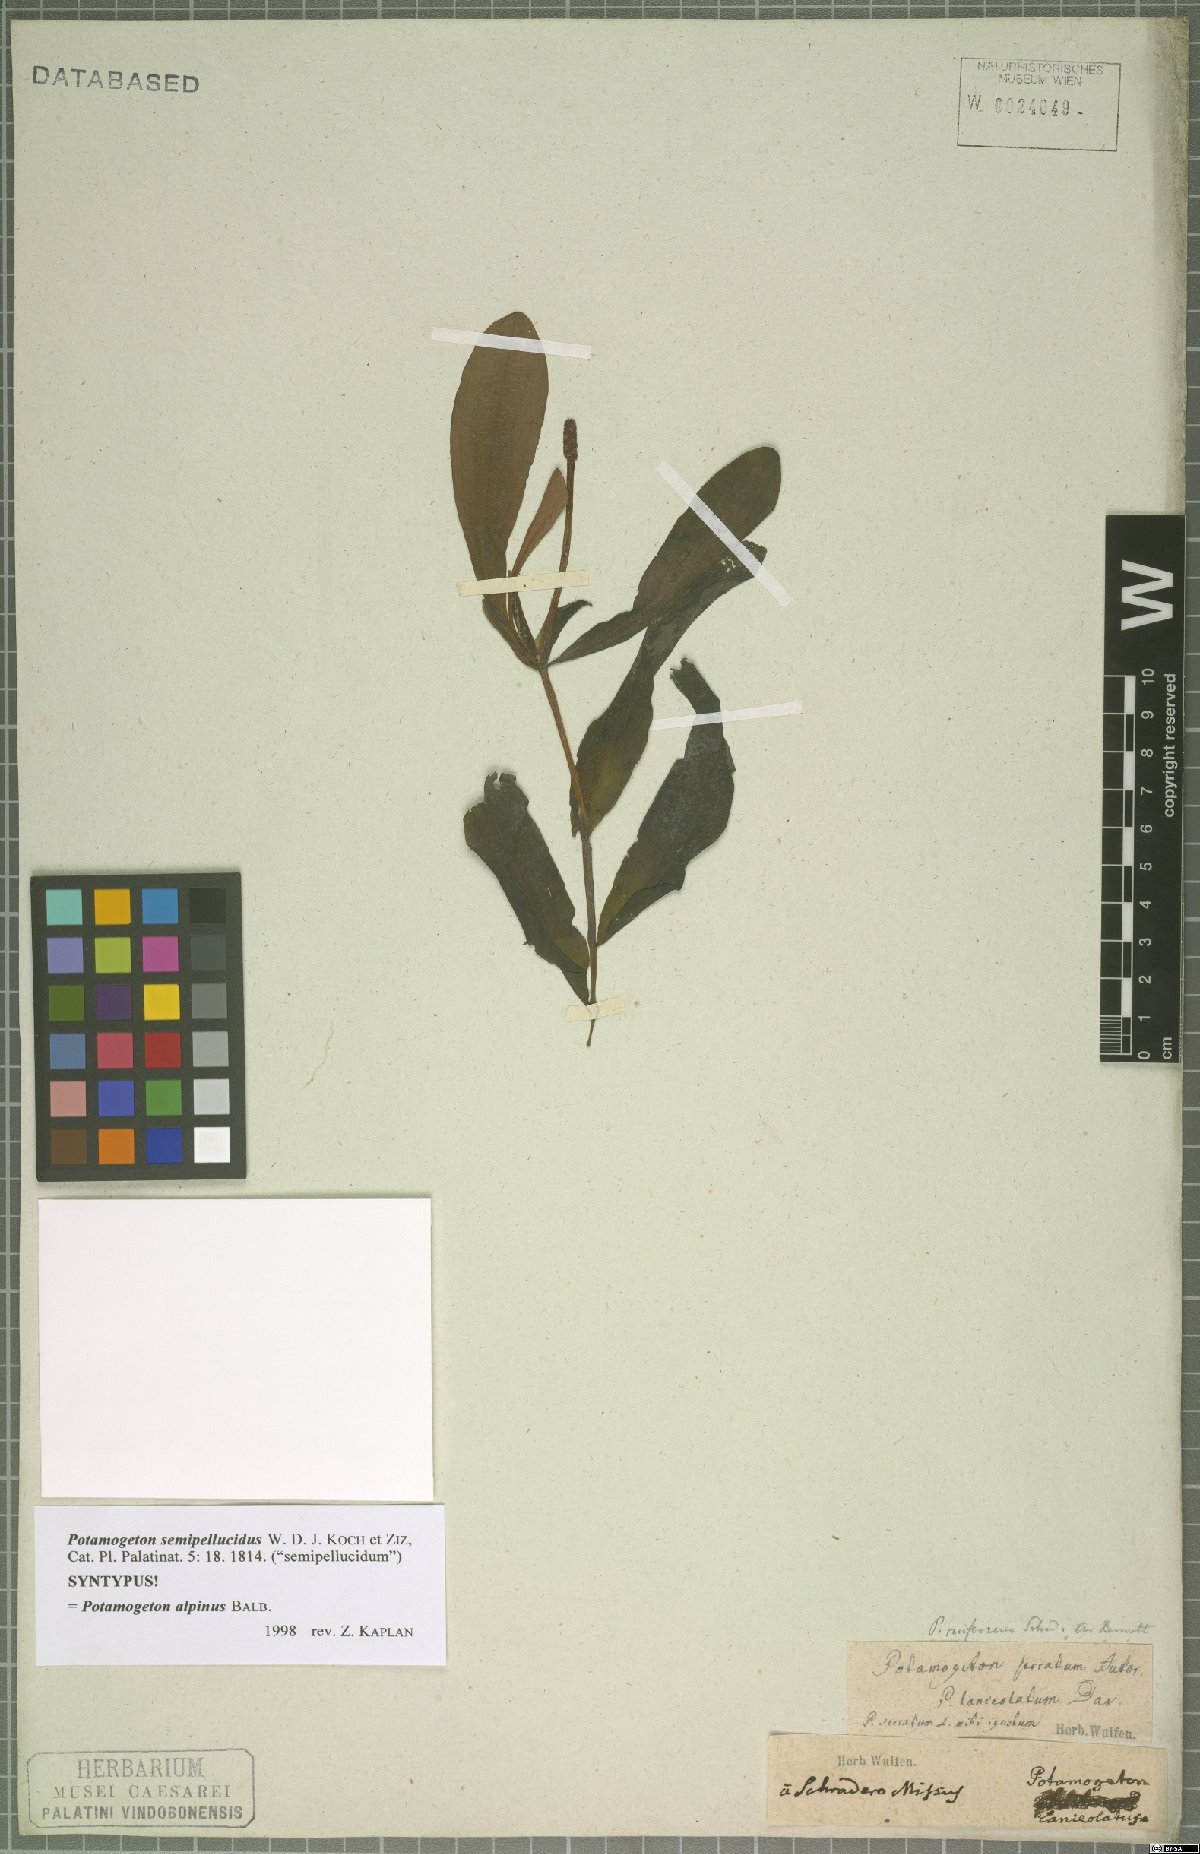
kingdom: Plantae
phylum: Tracheophyta
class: Liliopsida
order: Alismatales
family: Potamogetonaceae
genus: Potamogeton
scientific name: Potamogeton alpinus
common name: Red pondweed
